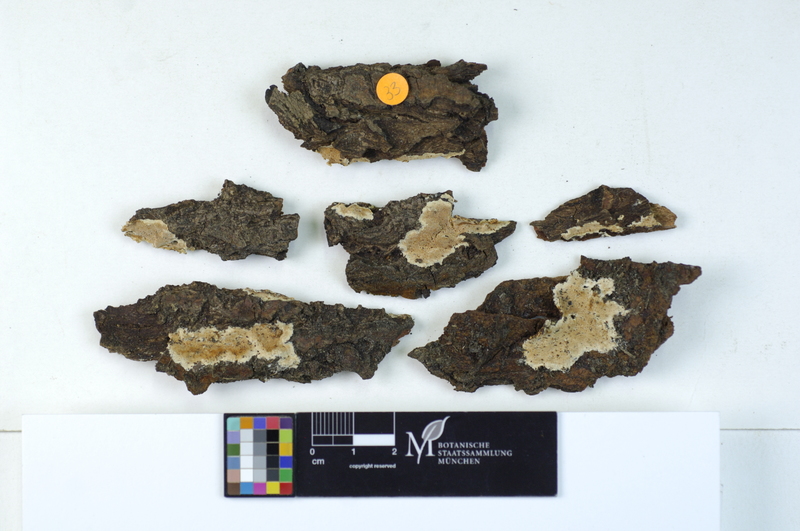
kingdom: Fungi
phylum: Basidiomycota
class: Agaricomycetes
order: Polyporales
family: Steccherinaceae
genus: Junghuhnia
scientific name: Junghuhnia nitida
